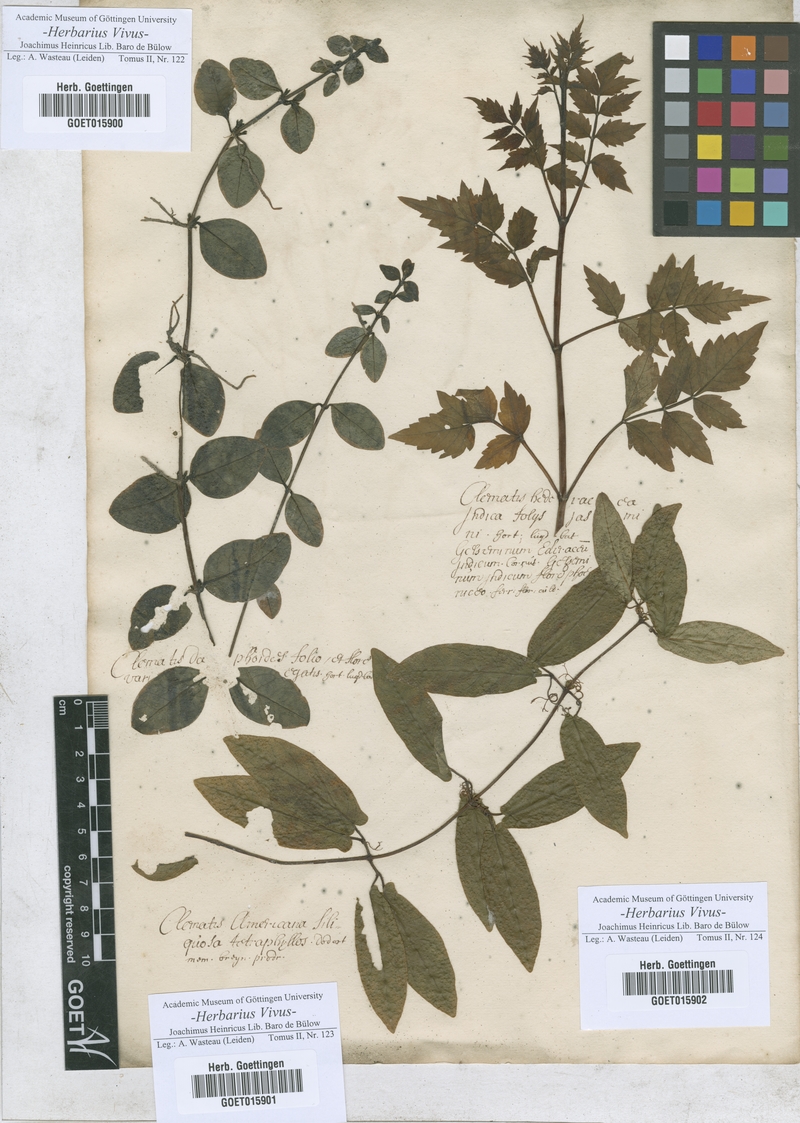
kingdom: Plantae
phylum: Tracheophyta
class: Magnoliopsida
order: Ranunculales
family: Ranunculaceae
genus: Clematis
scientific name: Clematis
